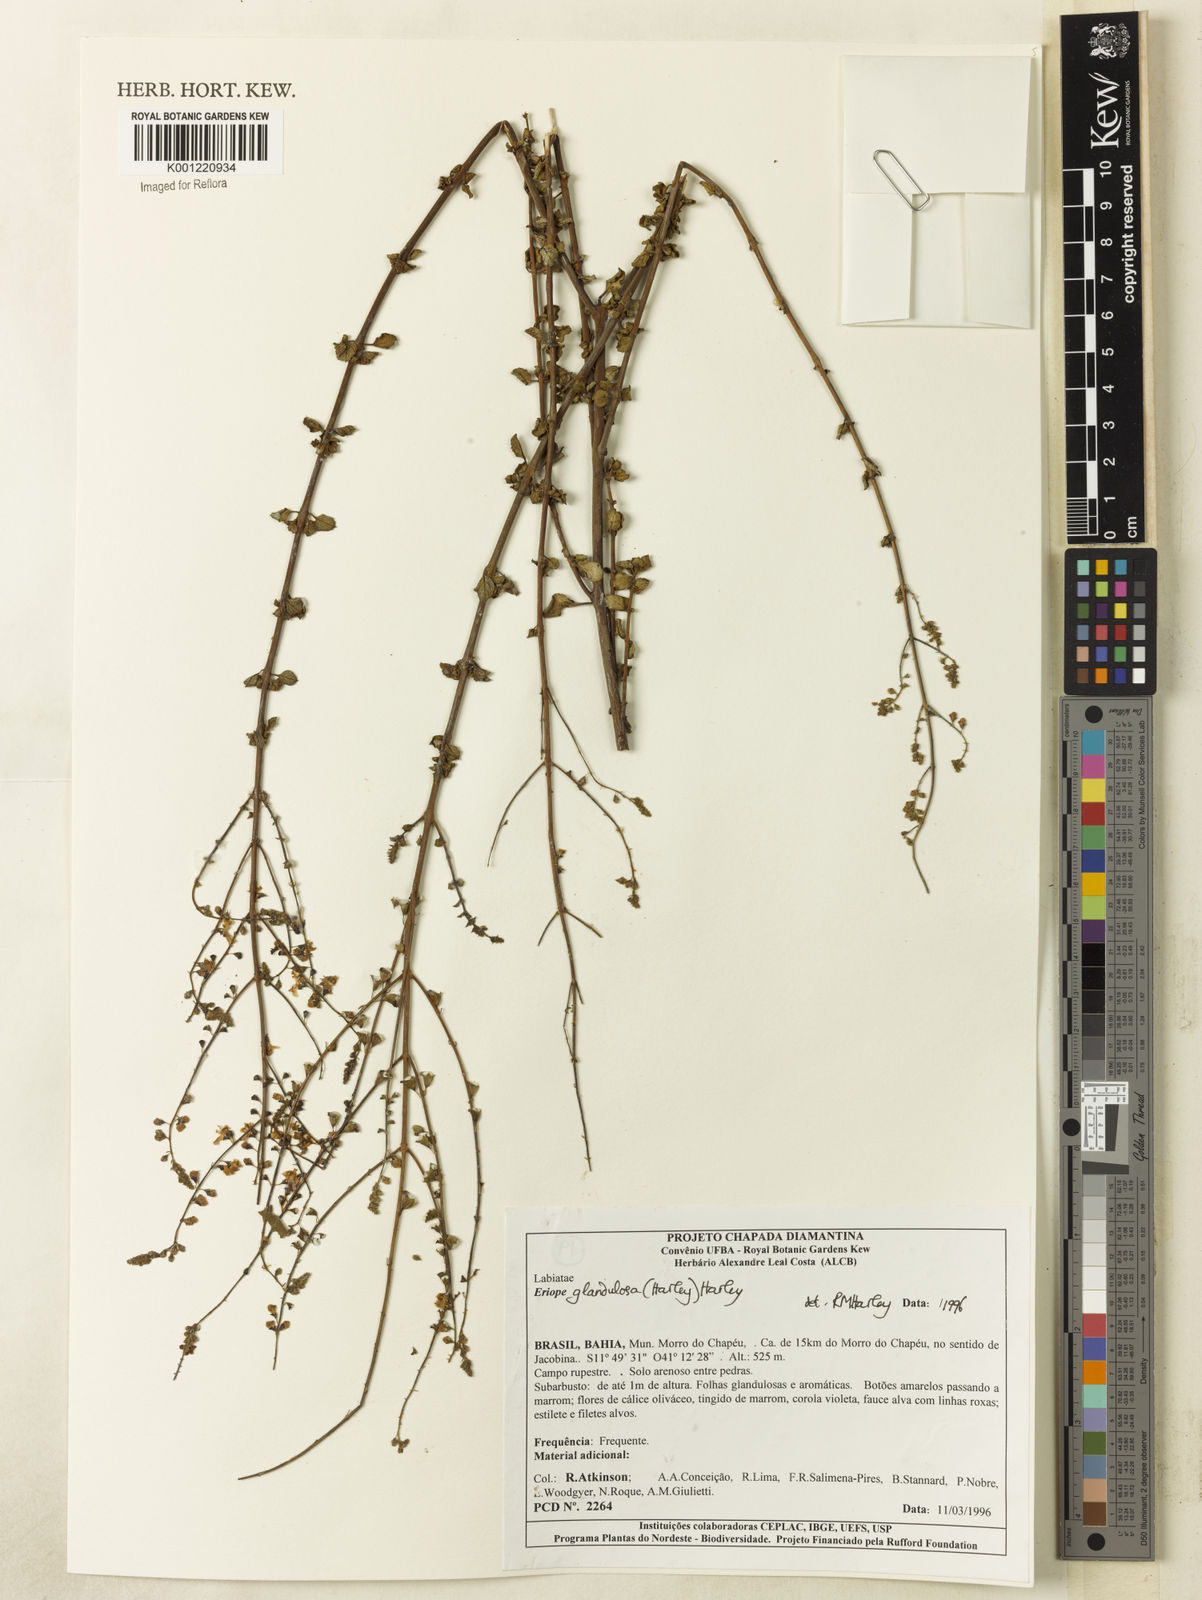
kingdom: Plantae
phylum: Tracheophyta
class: Magnoliopsida
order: Lamiales
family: Lamiaceae
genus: Eriope
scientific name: Eriope glandulosa
